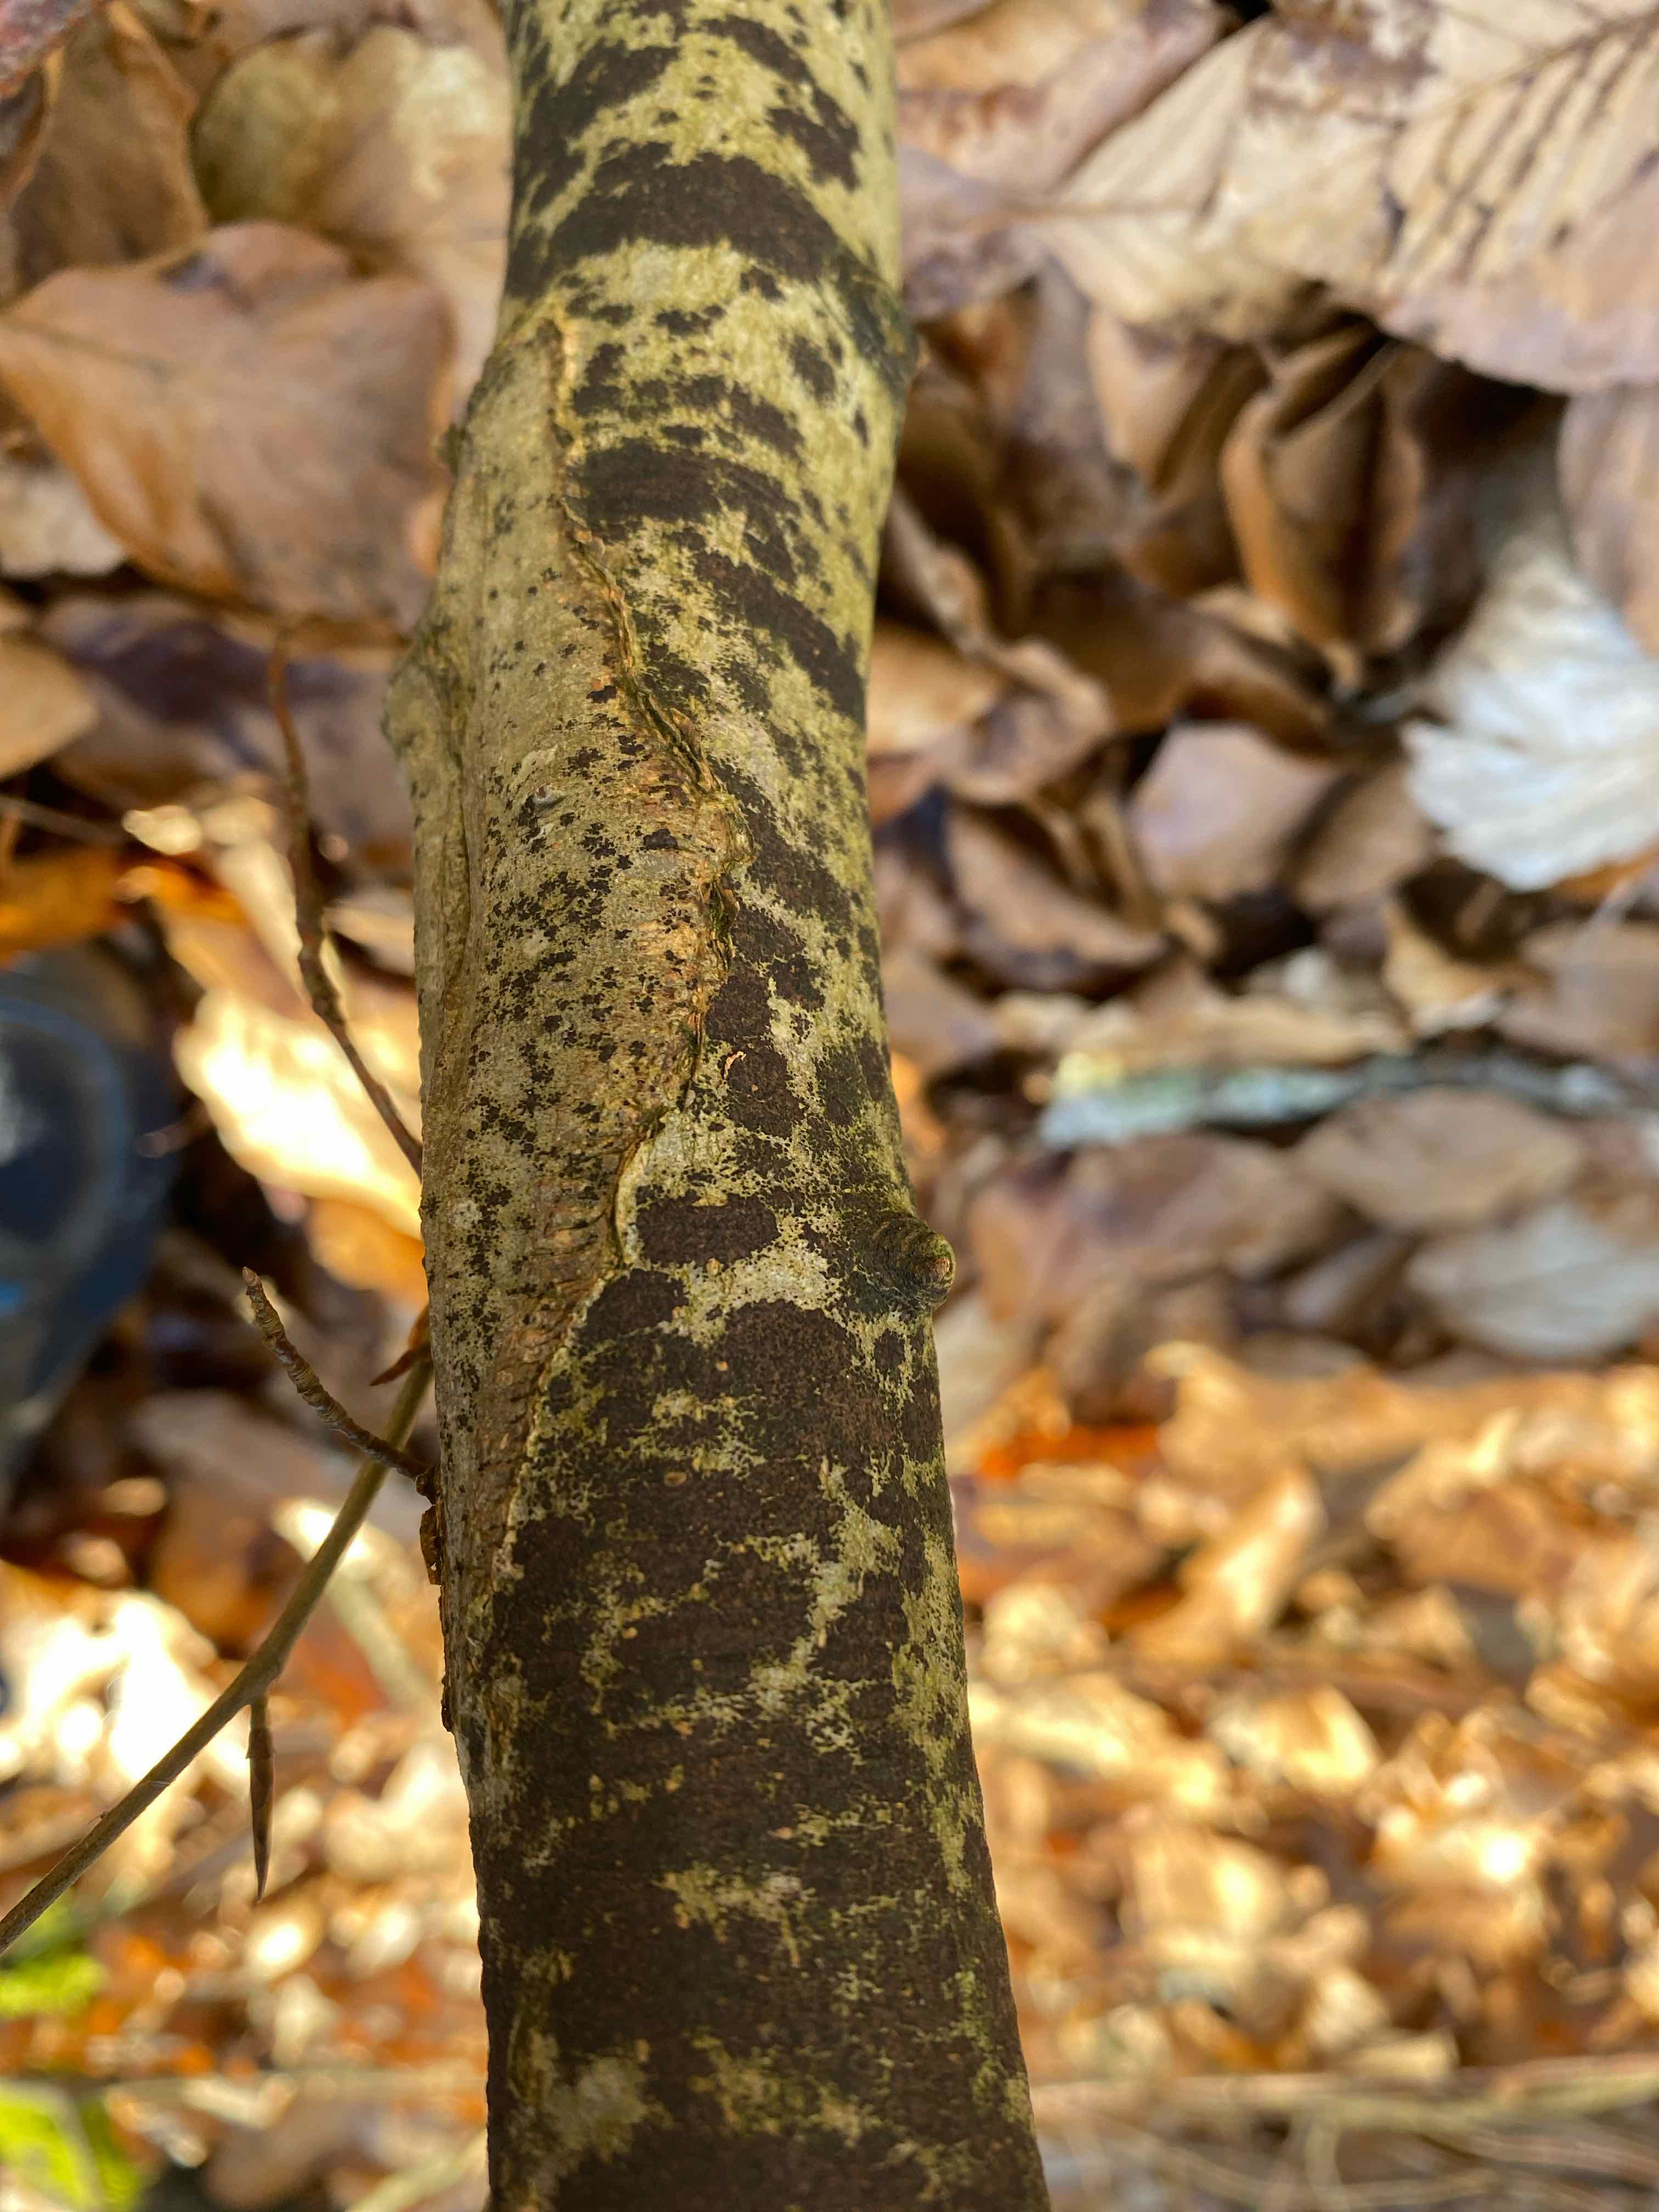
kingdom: Fungi
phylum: Ascomycota
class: Leotiomycetes
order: Rhytismatales
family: Ascodichaenaceae
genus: Ascodichaena
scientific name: Ascodichaena rugosa
